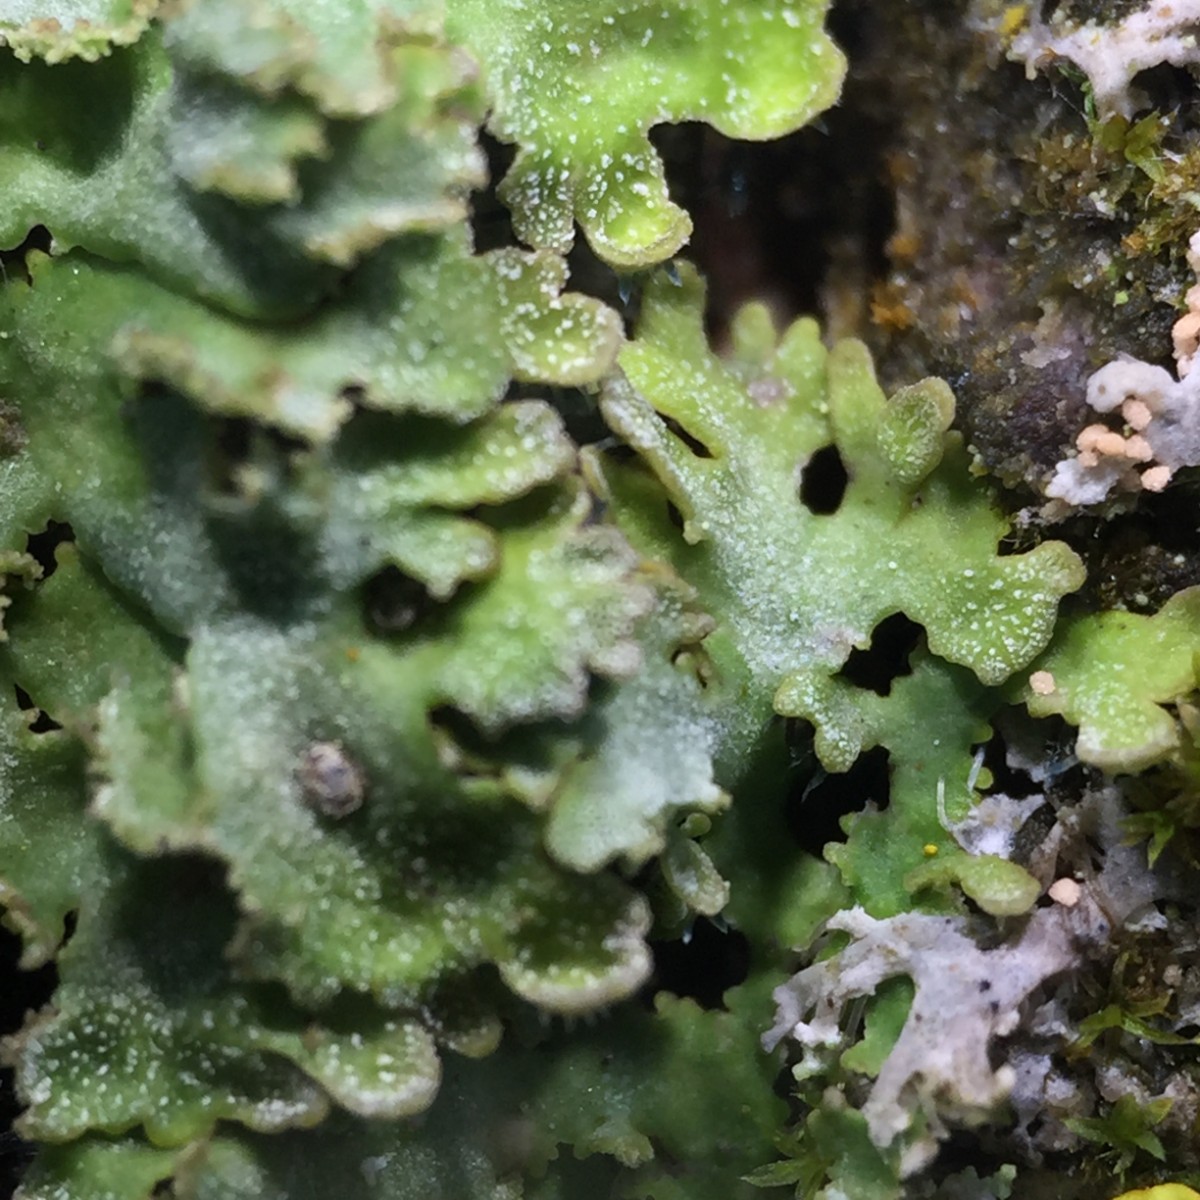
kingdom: Fungi
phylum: Ascomycota
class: Lecanoromycetes
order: Caliciales
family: Physciaceae
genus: Poeltonia
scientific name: Poeltonia grisea
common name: hvidgrå dugrosetlav
